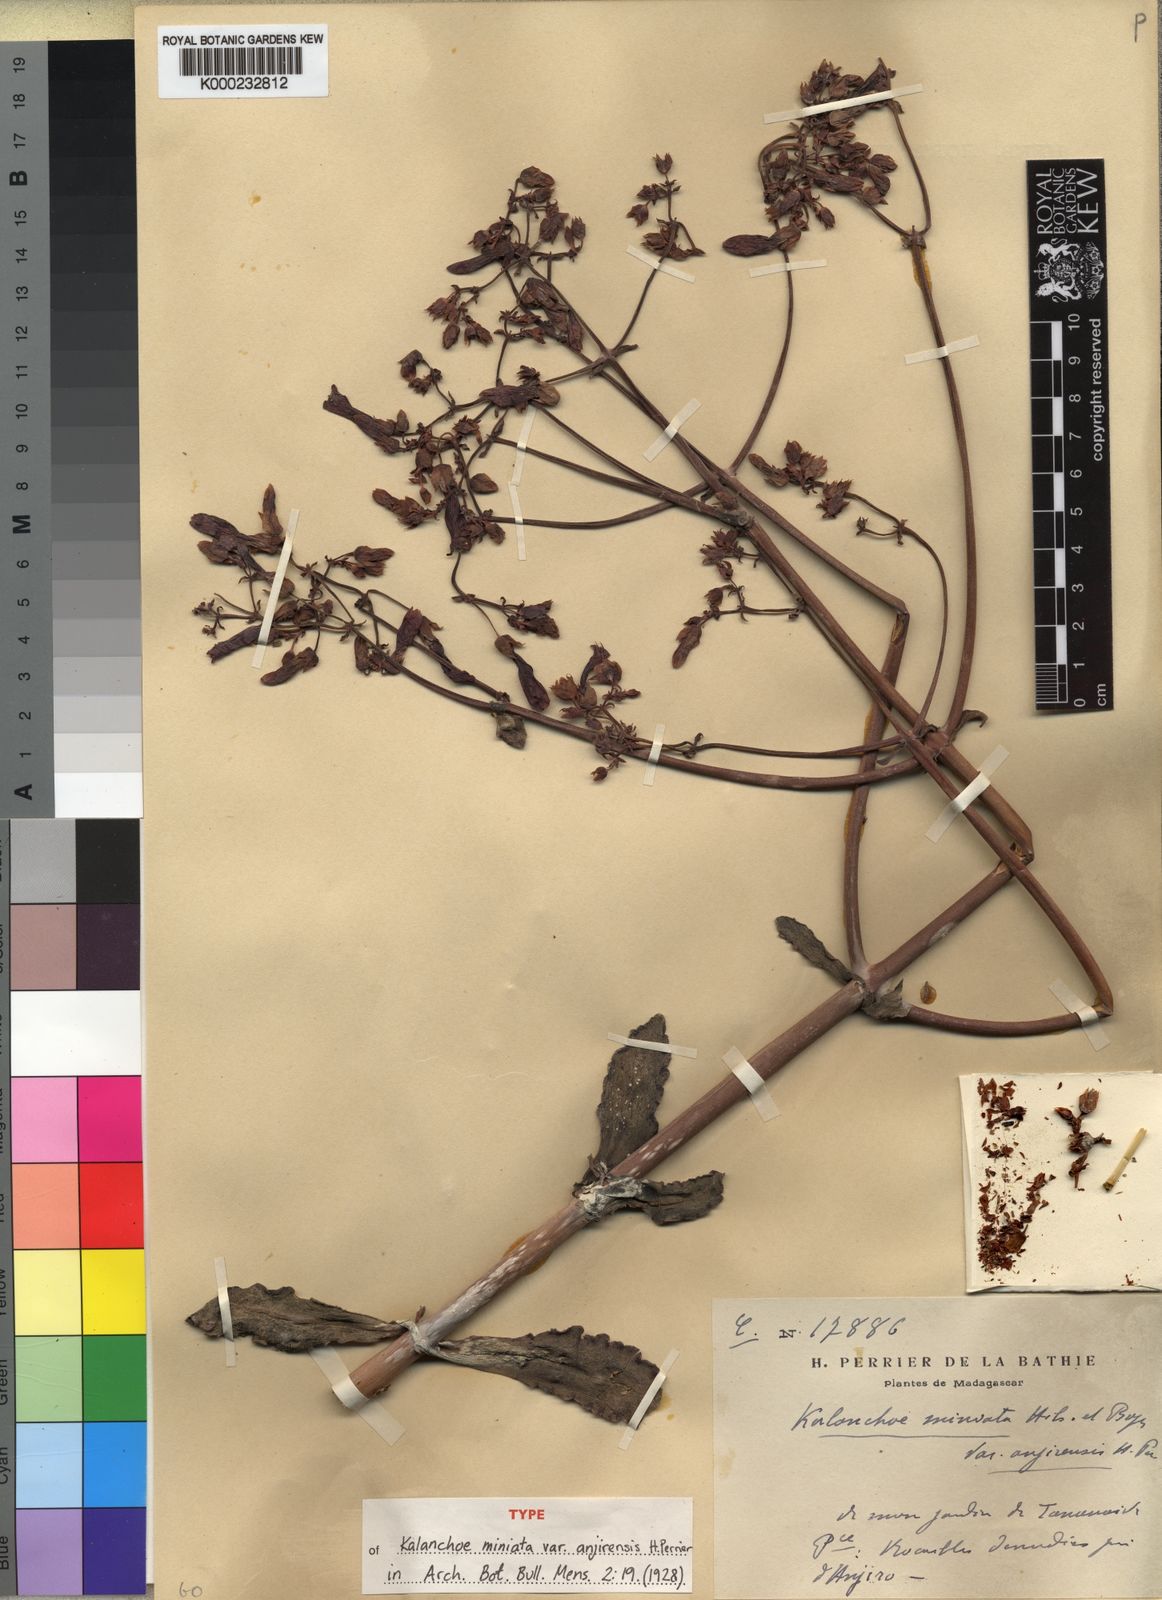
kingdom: Chromista
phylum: Ciliophora
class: Gymnostomatea
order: Spathidiida
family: Spathidiidae
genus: Bryophyllum
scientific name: Bryophyllum
